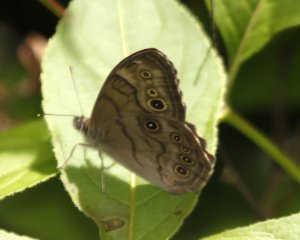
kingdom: Animalia
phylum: Arthropoda
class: Insecta
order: Lepidoptera
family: Nymphalidae
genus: Lethe
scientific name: Lethe anthedon
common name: Northern Pearly-Eye
